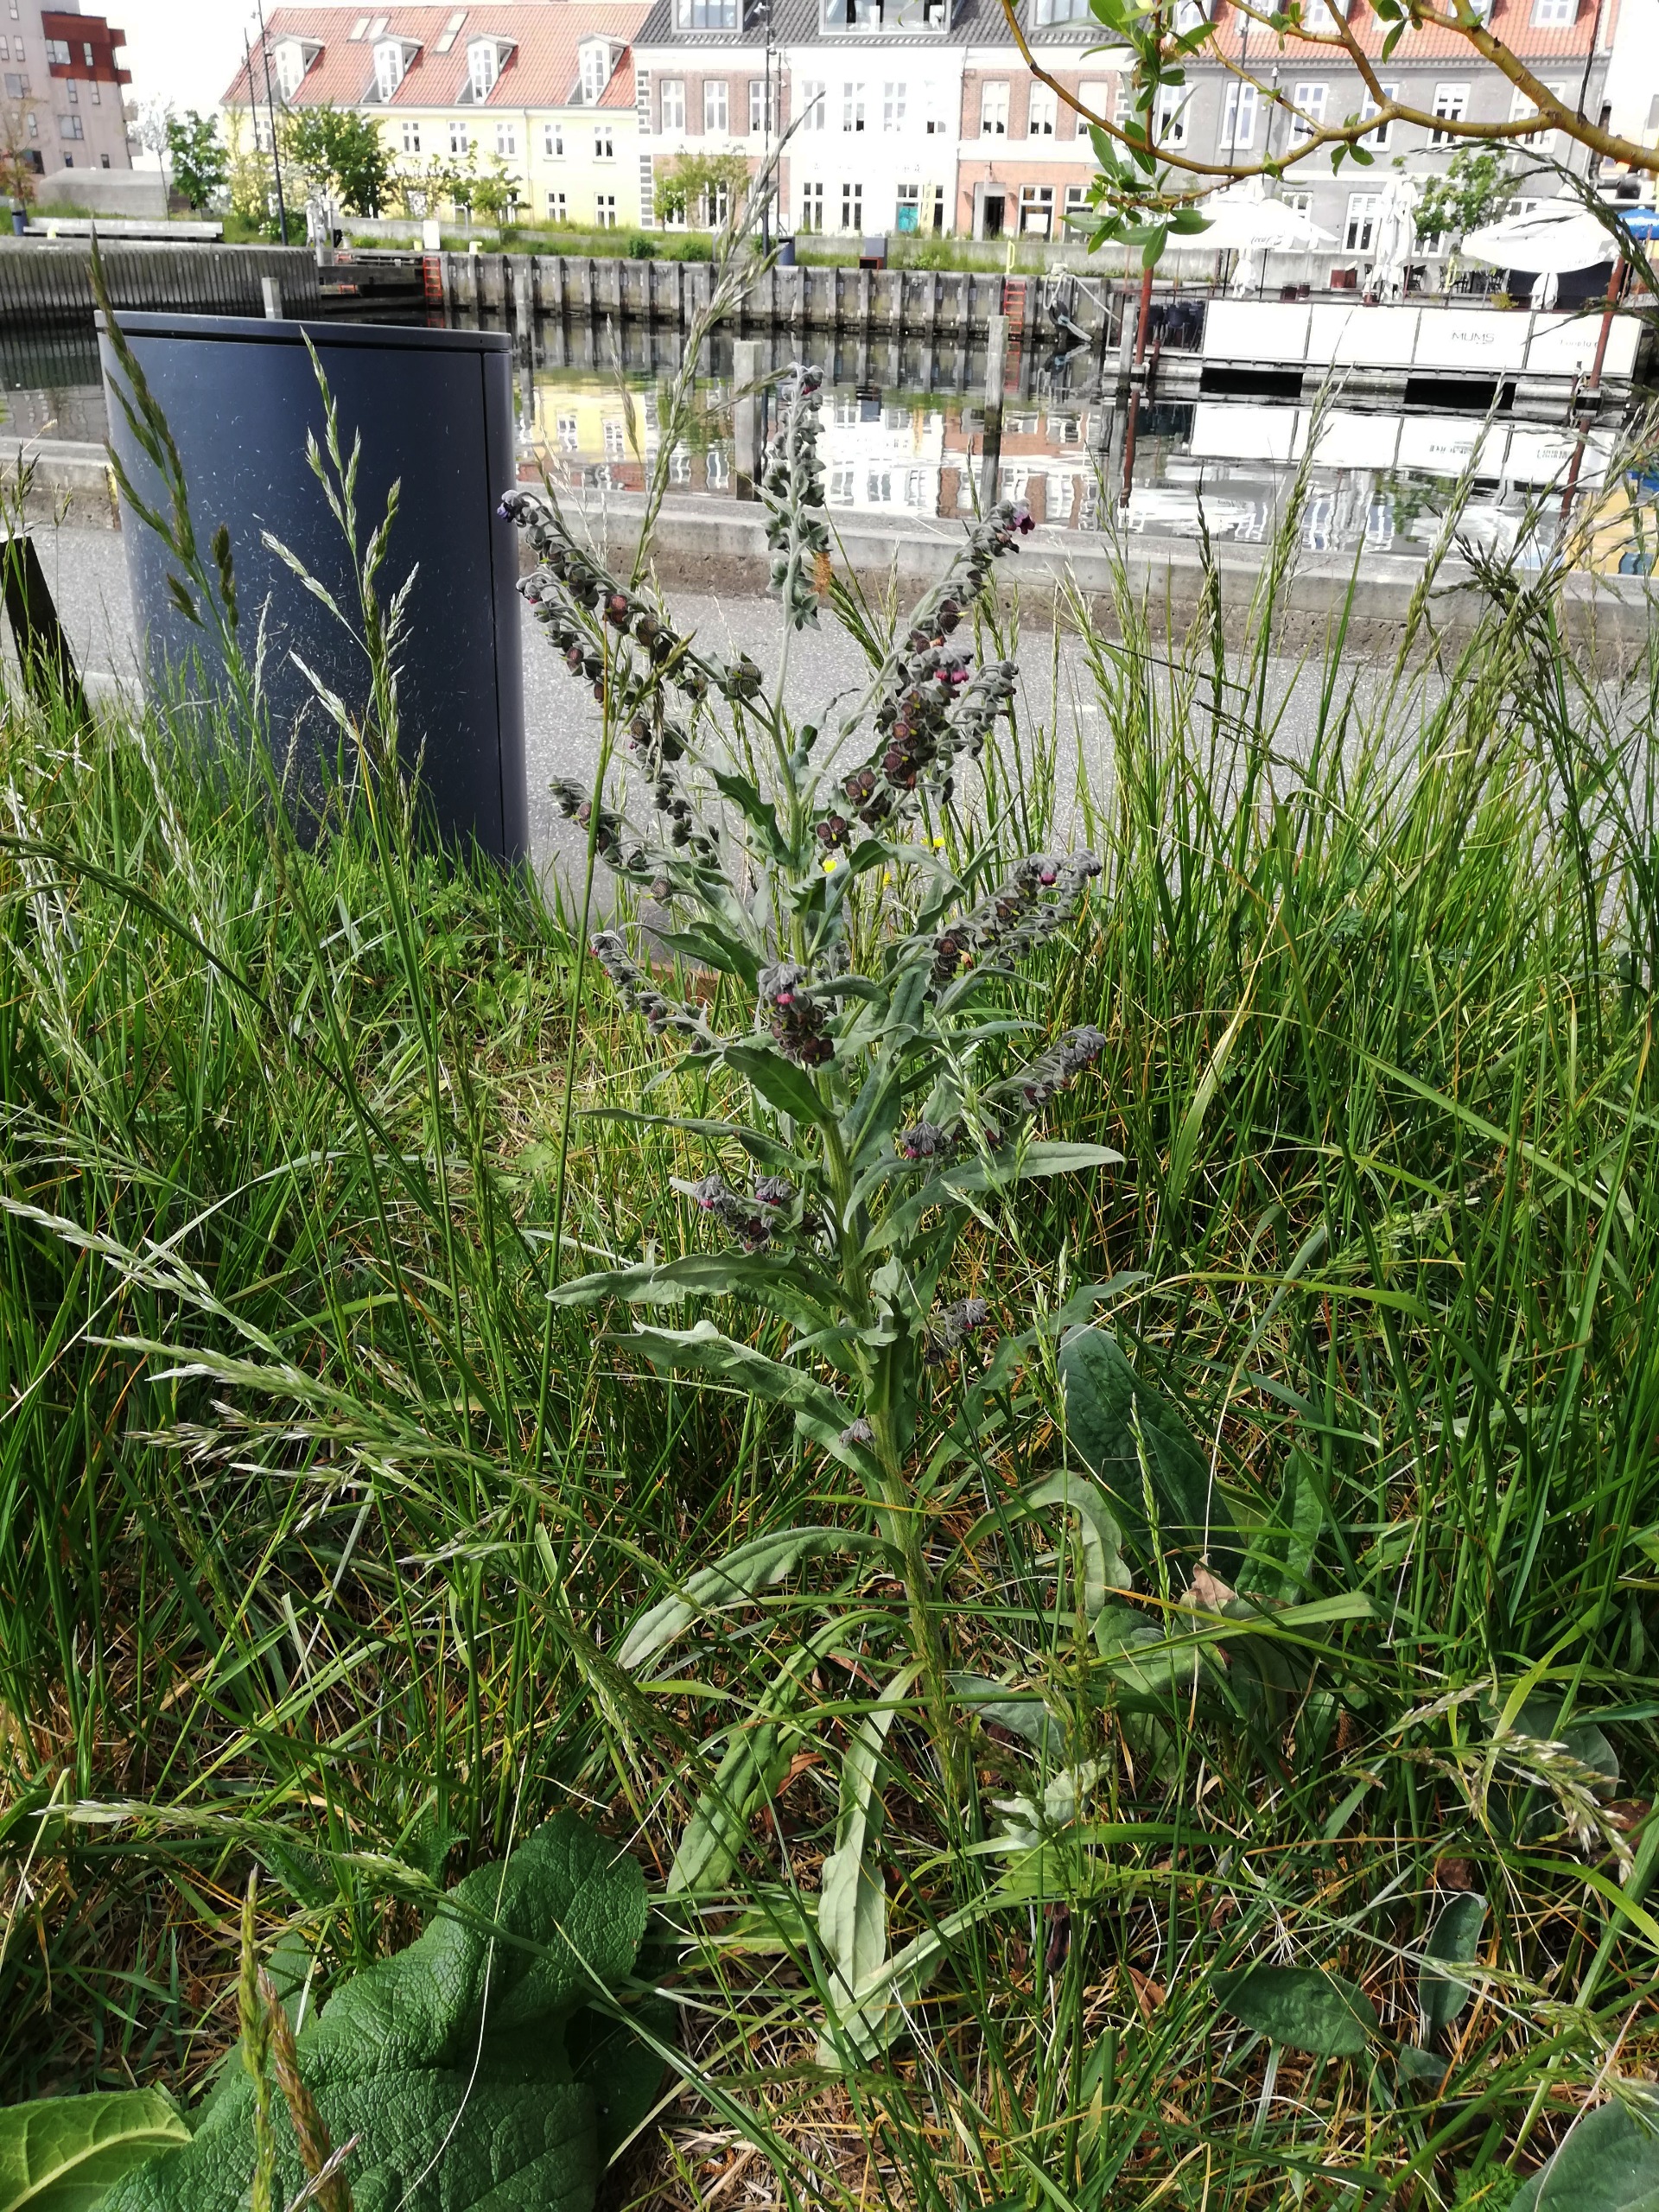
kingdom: Plantae
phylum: Tracheophyta
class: Magnoliopsida
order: Boraginales
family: Boraginaceae
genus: Cynoglossum
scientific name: Cynoglossum officinale
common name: Hundetunge
